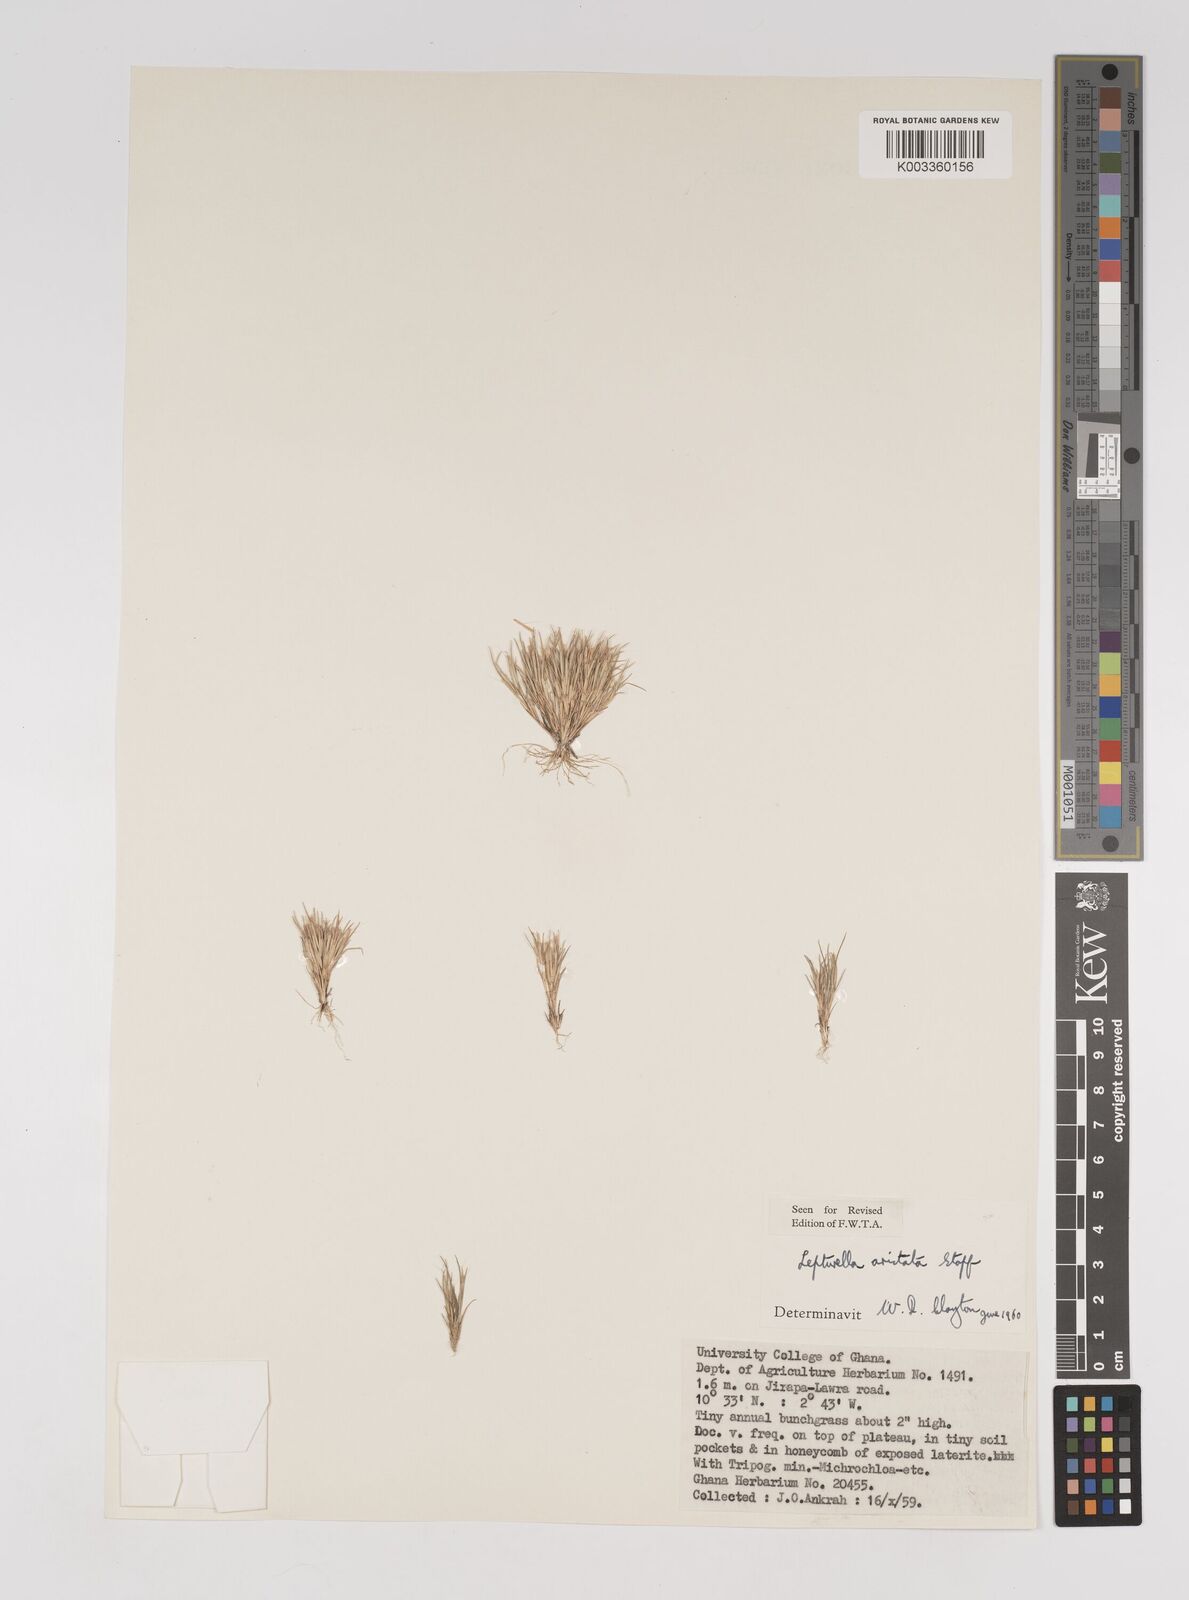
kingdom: Plantae
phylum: Tracheophyta
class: Liliopsida
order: Poales
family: Poaceae
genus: Oropetium
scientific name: Oropetium aristatum
